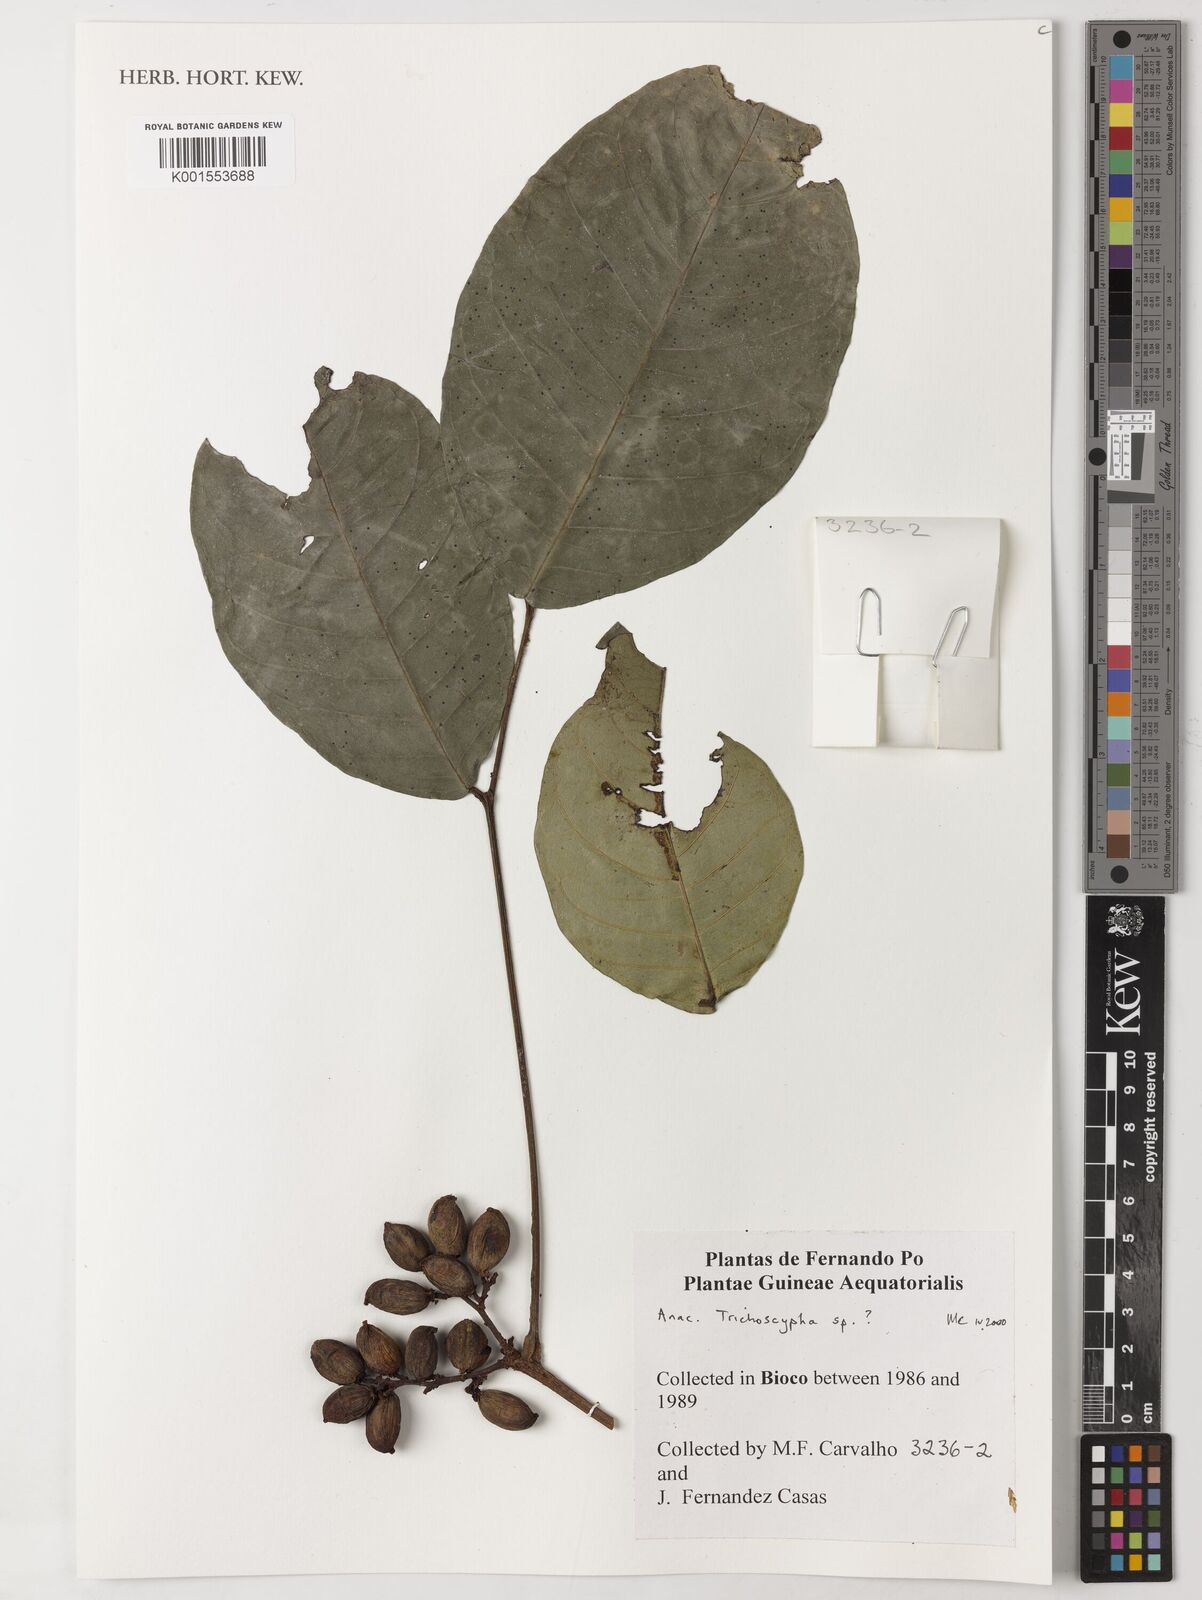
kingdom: Plantae
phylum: Tracheophyta
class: Magnoliopsida
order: Sapindales
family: Anacardiaceae
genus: Trichoscypha
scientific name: Trichoscypha
